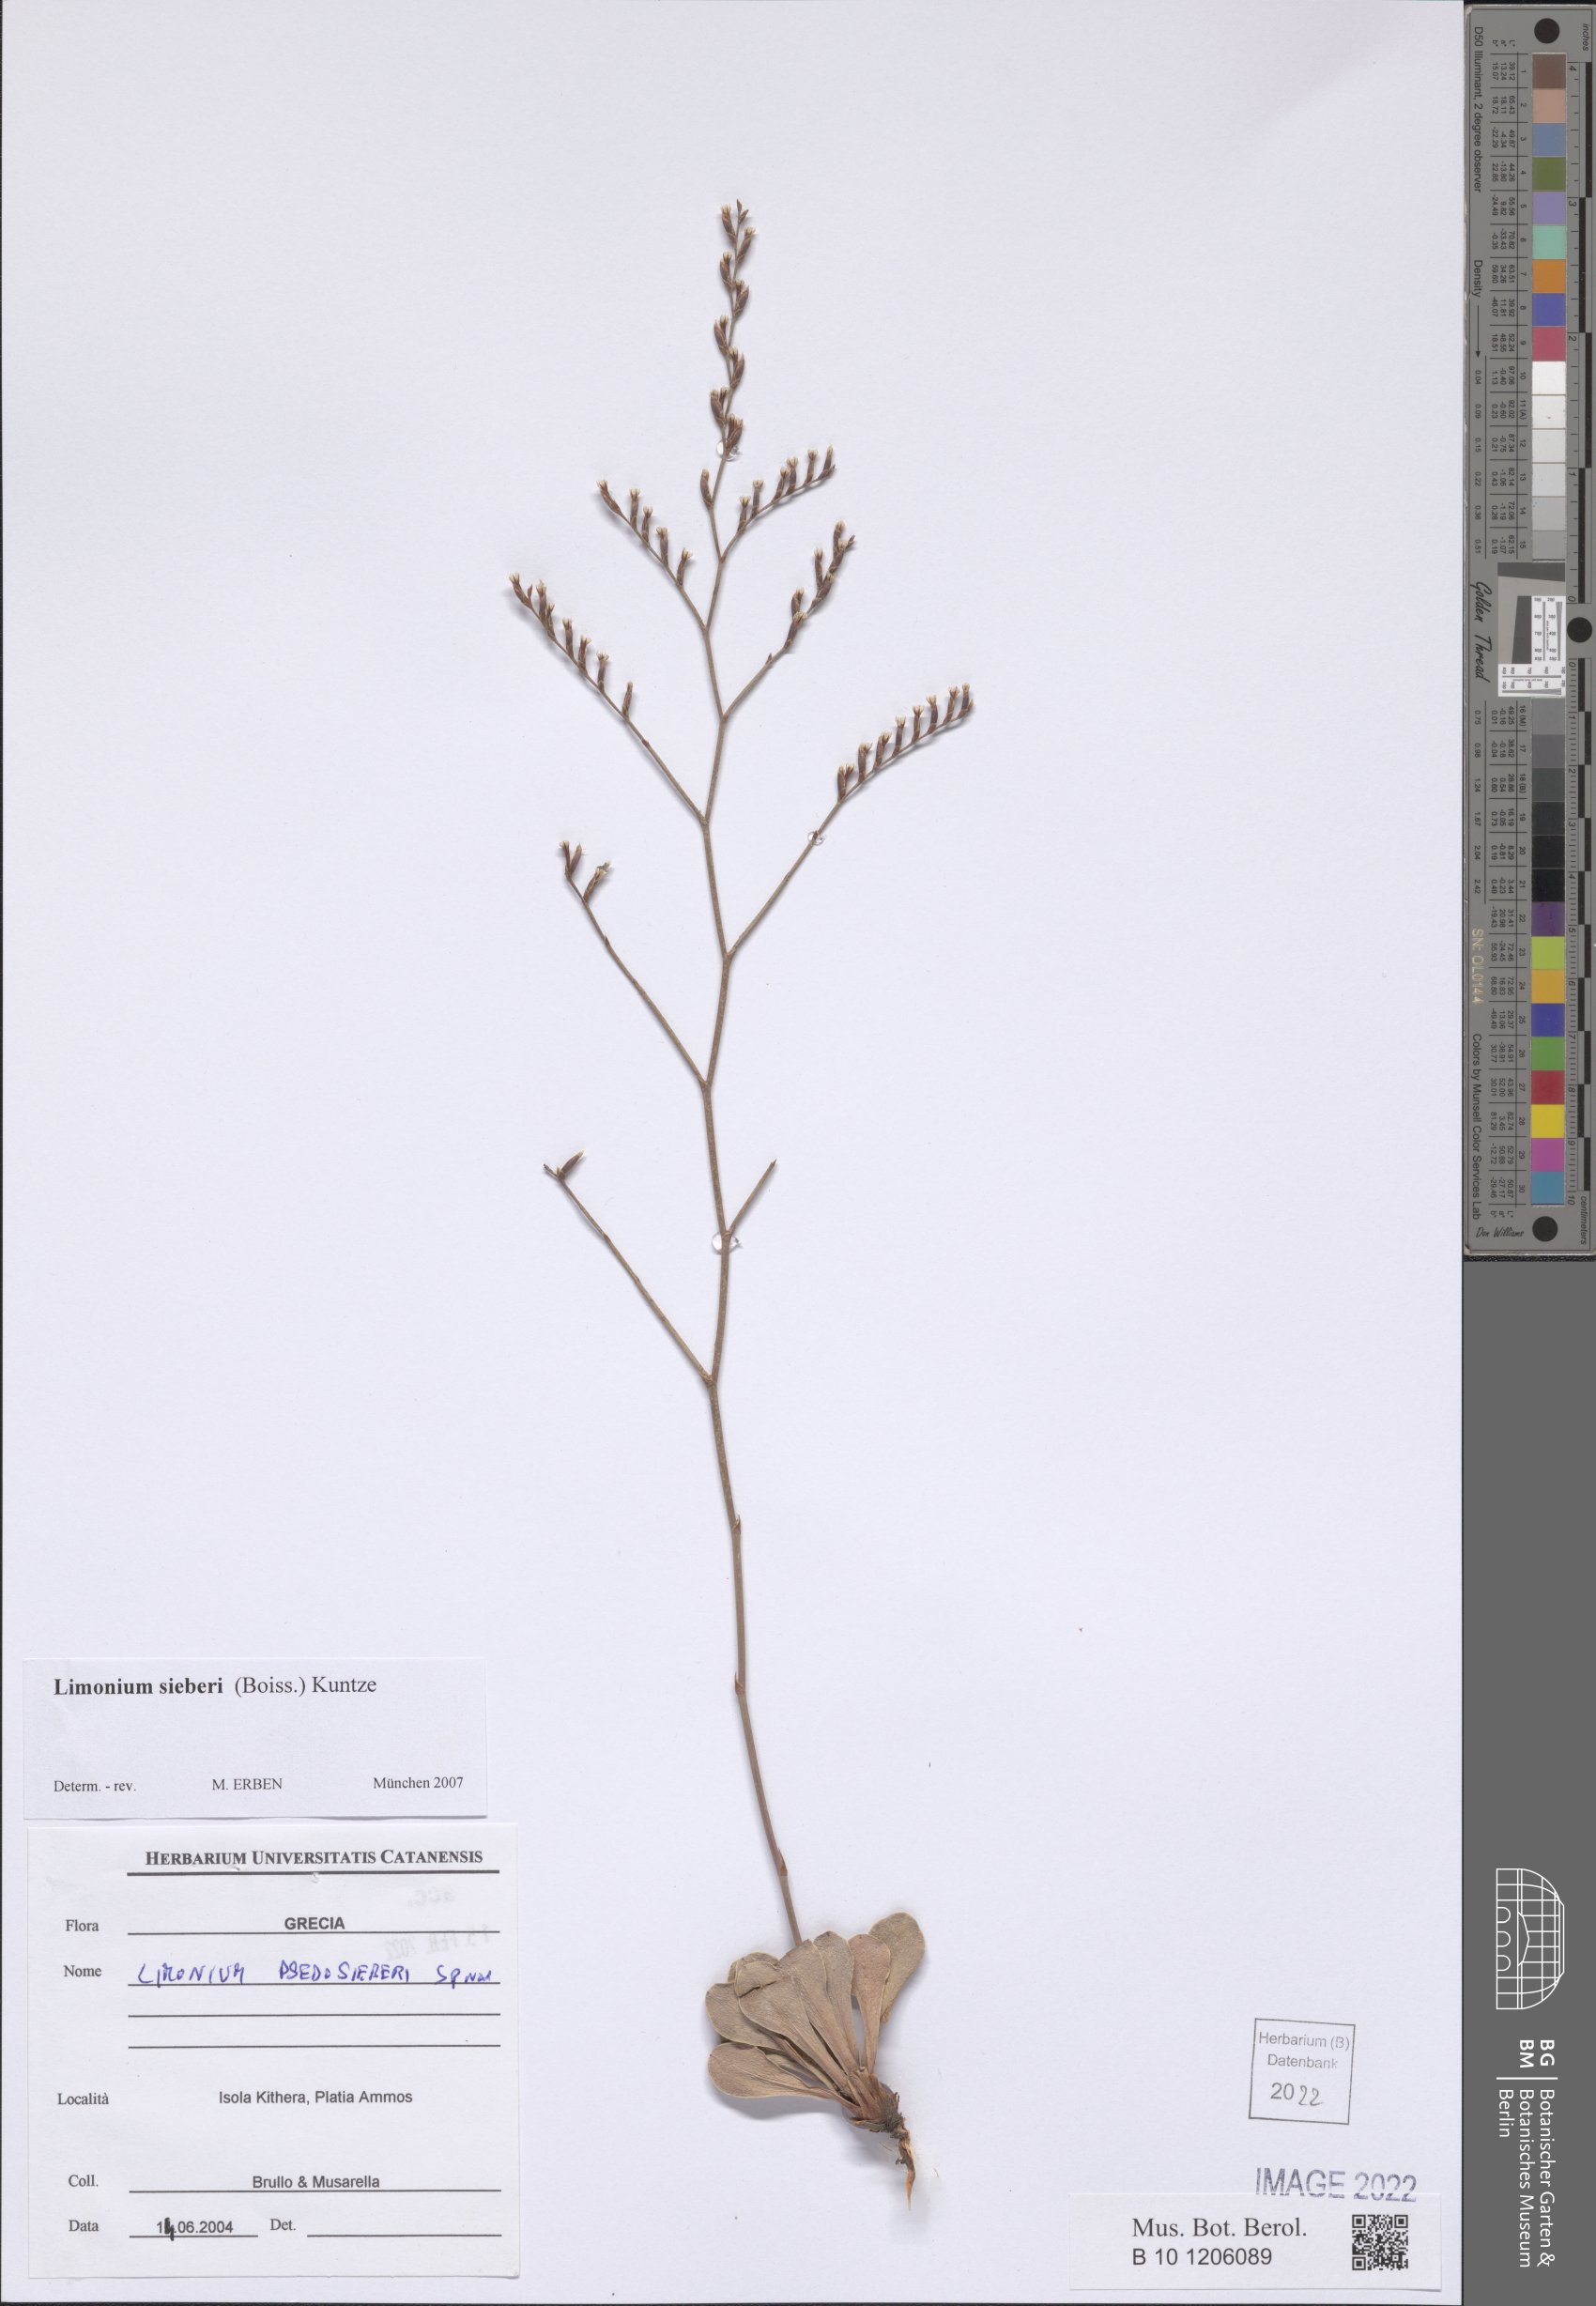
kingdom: Plantae
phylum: Tracheophyta
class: Magnoliopsida
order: Caryophyllales
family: Plumbaginaceae
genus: Limonium
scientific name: Limonium sieberi
